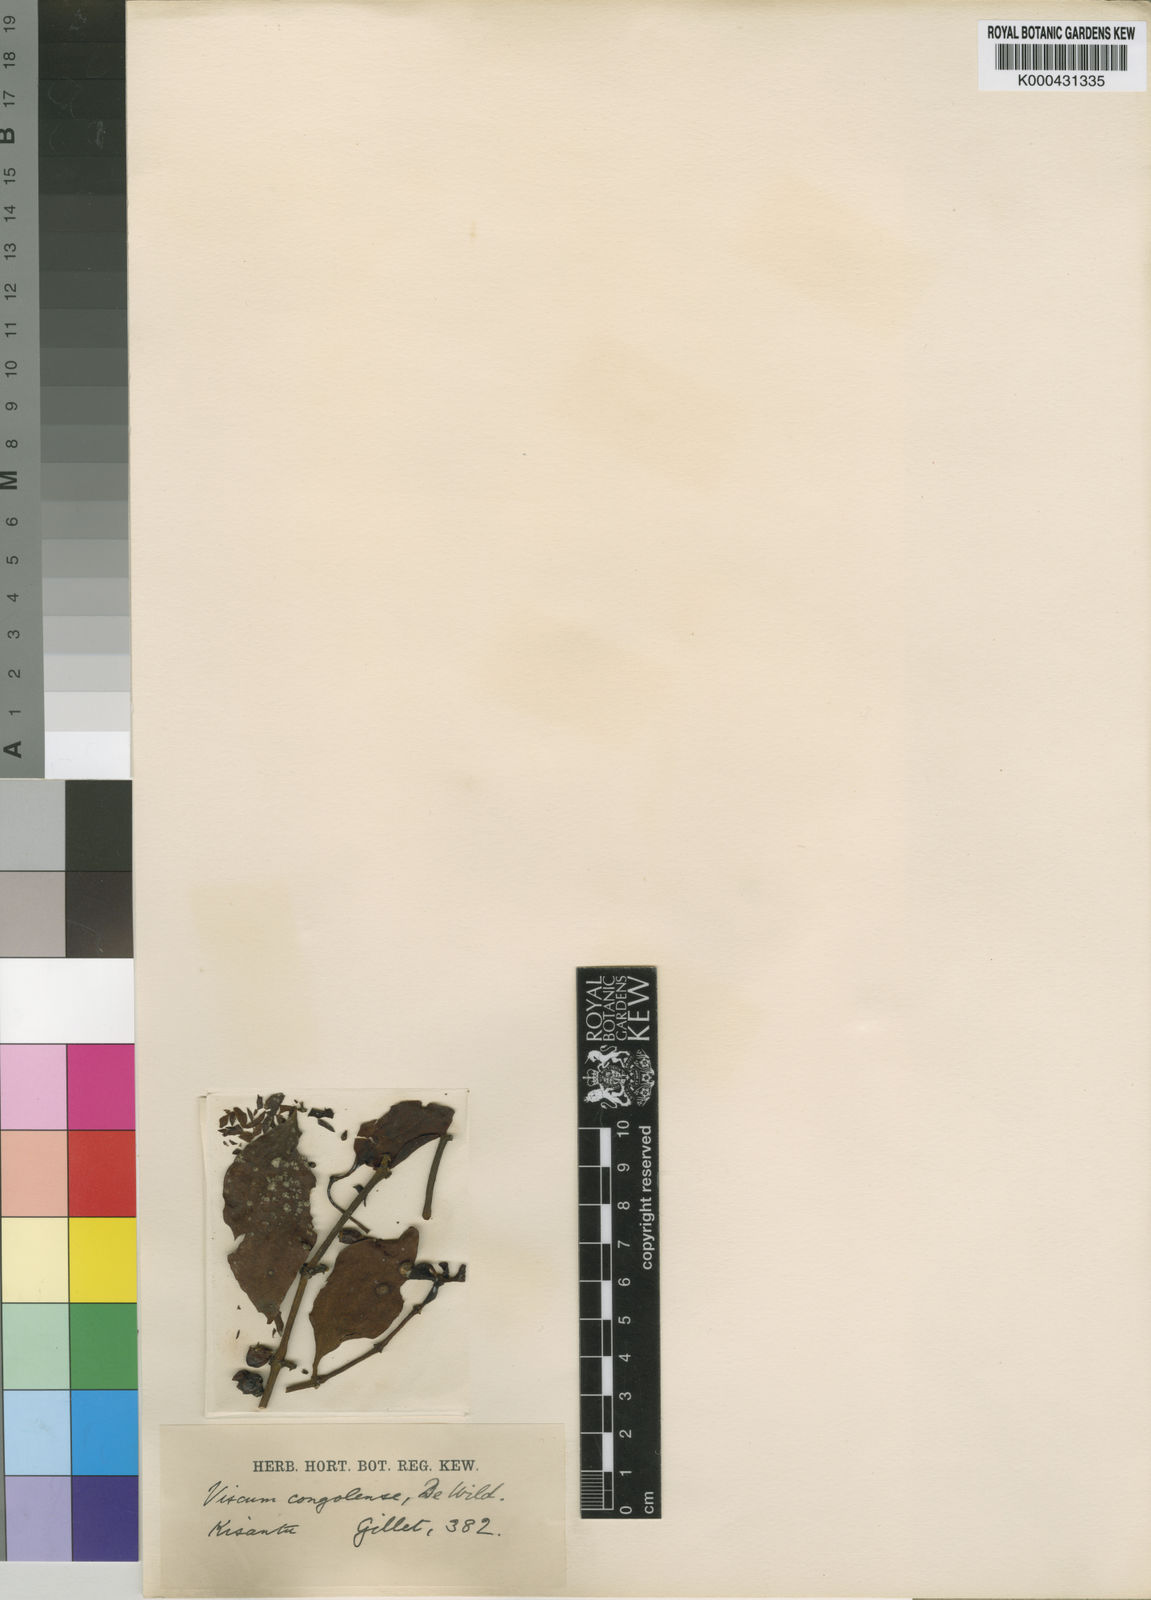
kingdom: Plantae
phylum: Tracheophyta
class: Magnoliopsida
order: Santalales
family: Viscaceae
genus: Viscum
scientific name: Viscum congolense
